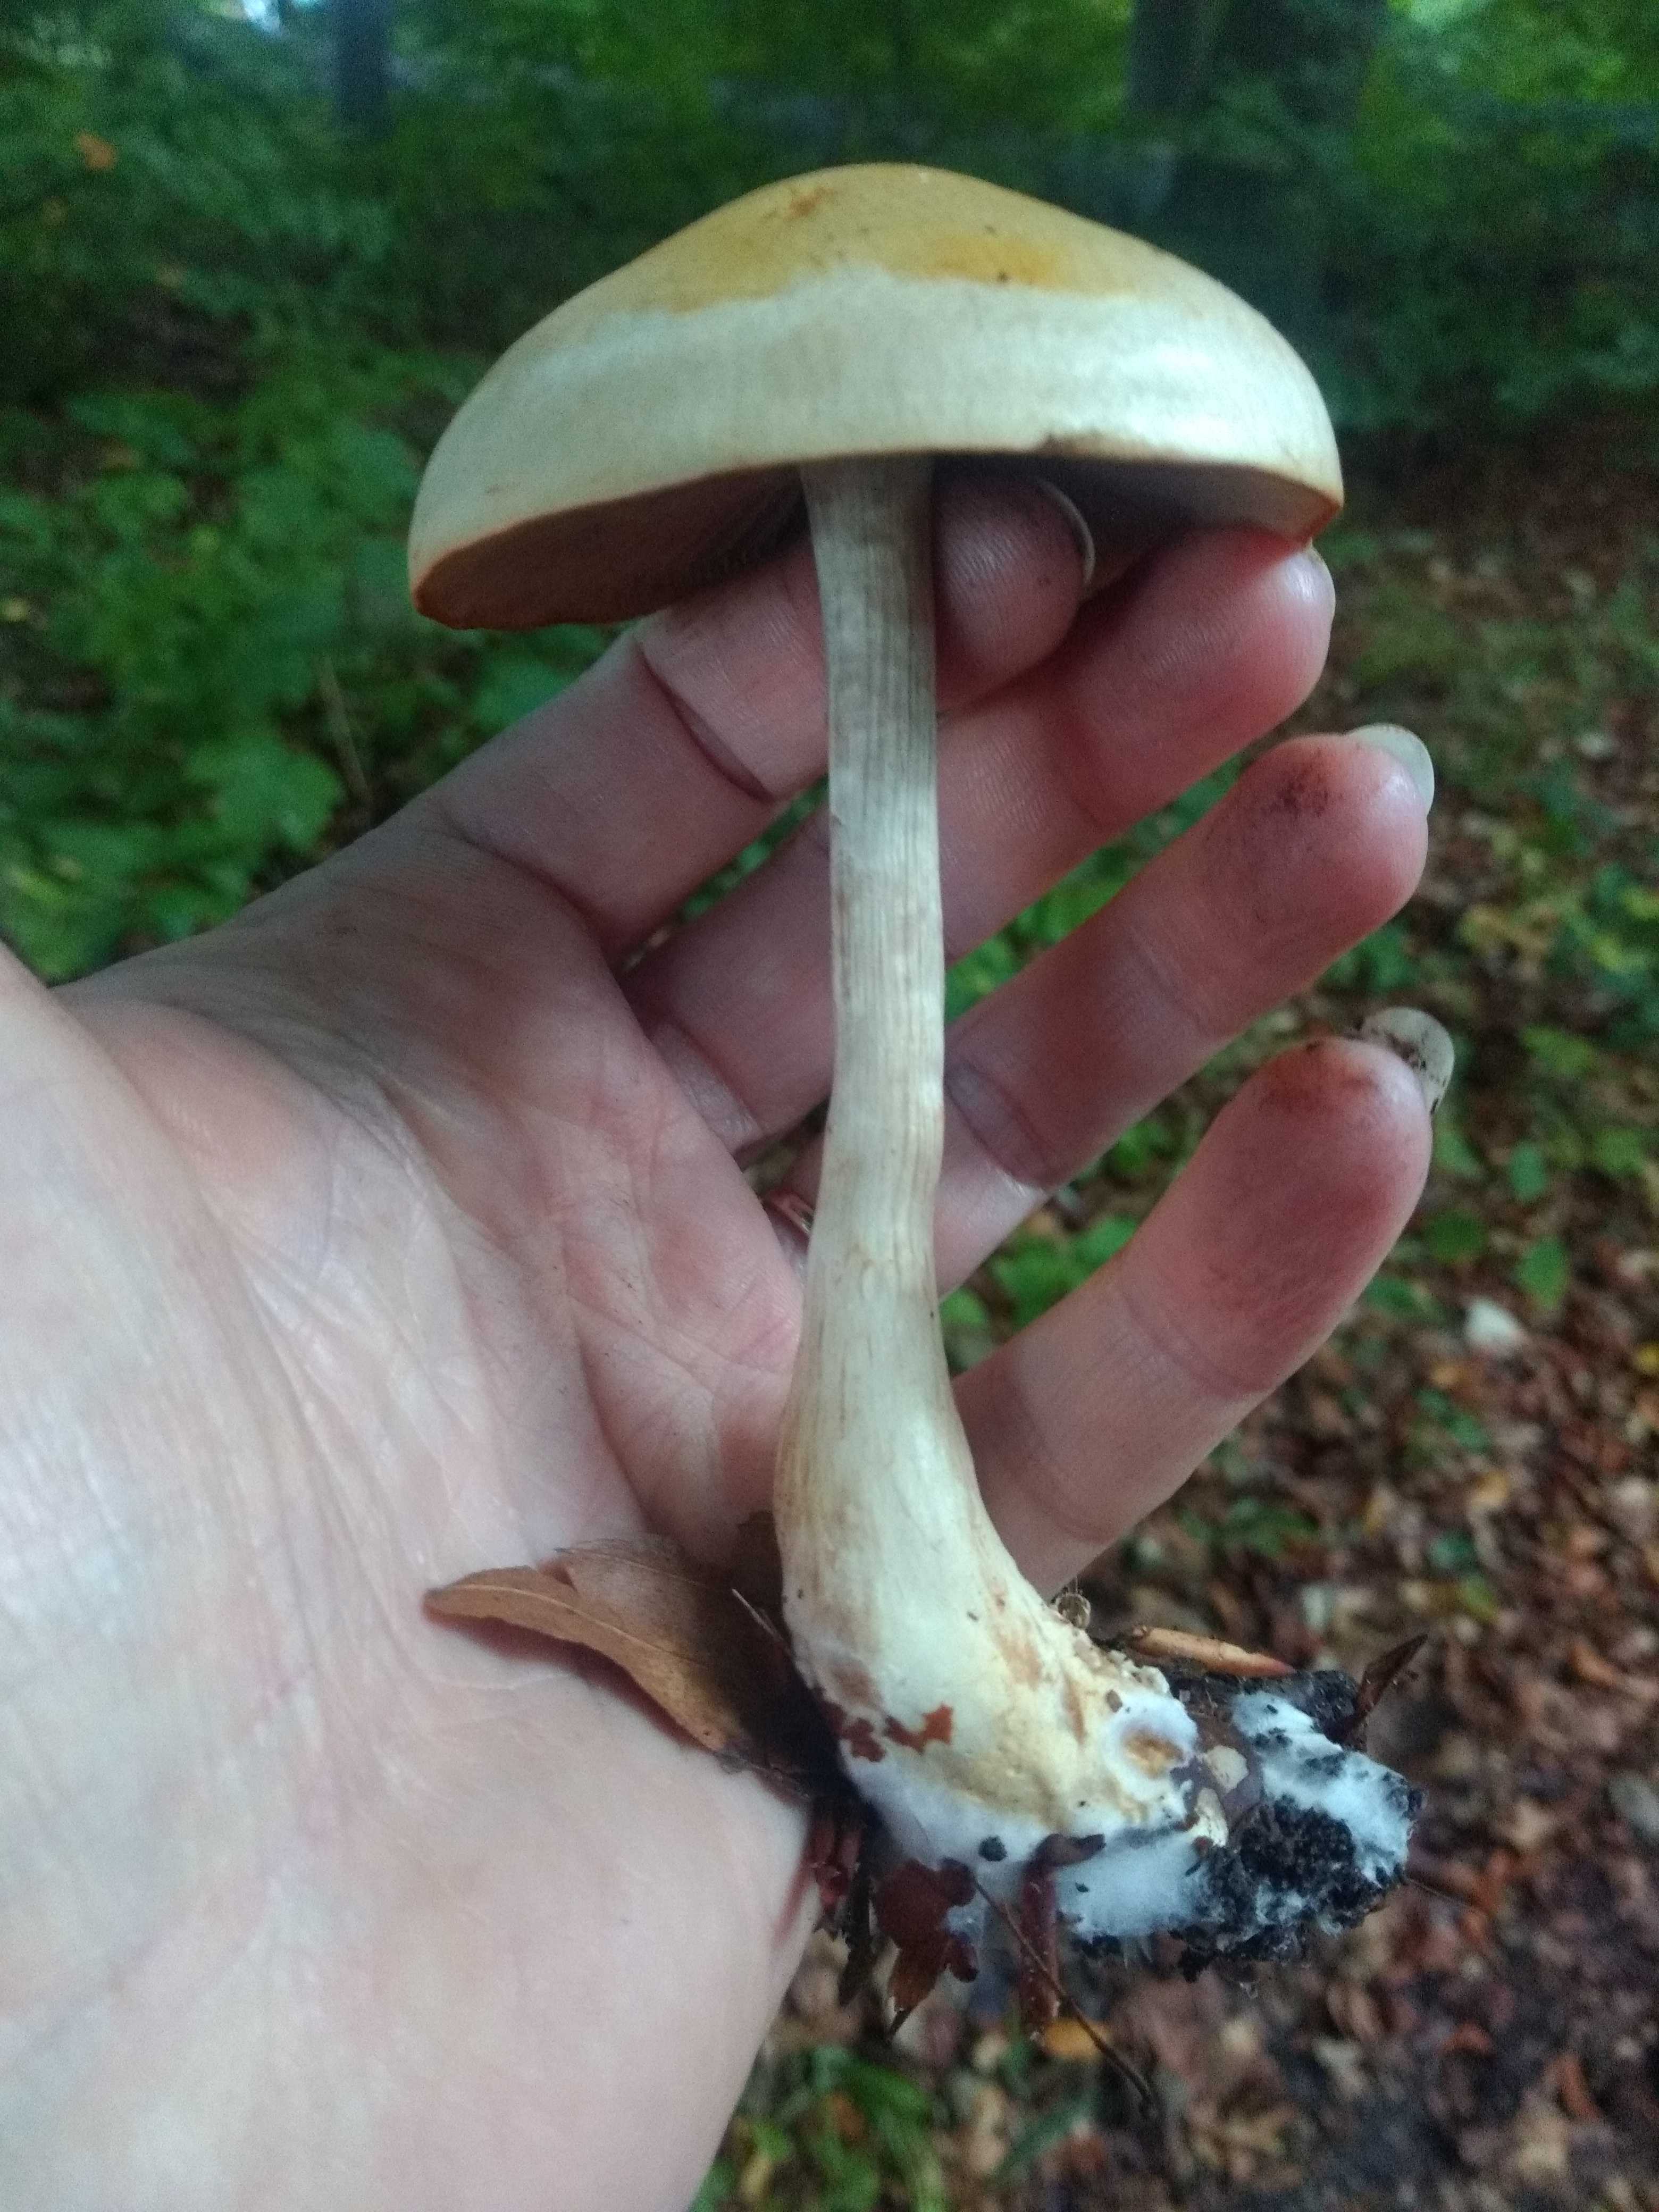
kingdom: Fungi
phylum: Basidiomycota
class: Agaricomycetes
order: Agaricales
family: Cortinariaceae
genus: Cortinarius
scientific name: Cortinarius
